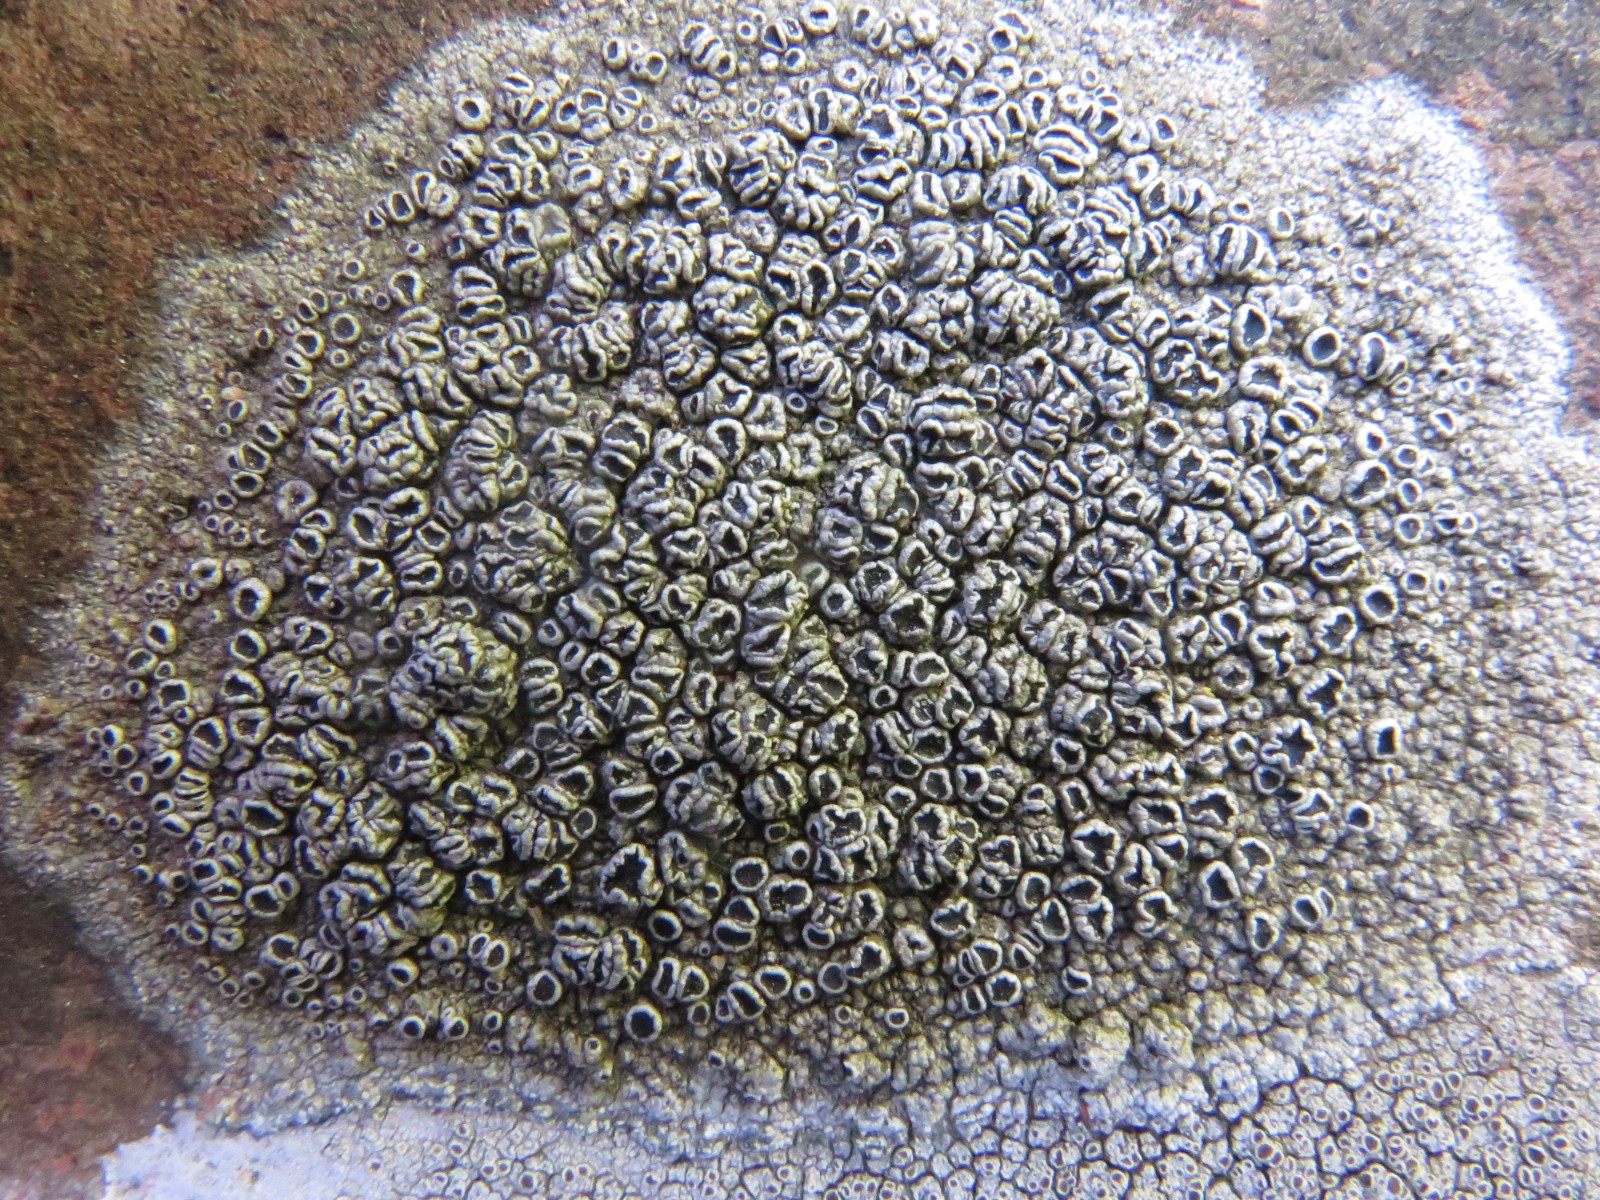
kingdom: Fungi
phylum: Ascomycota
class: Lecanoromycetes
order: Lecanorales
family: Tephromelataceae
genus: Tephromela
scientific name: Tephromela atra
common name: sortfrugtet kantskivelav
